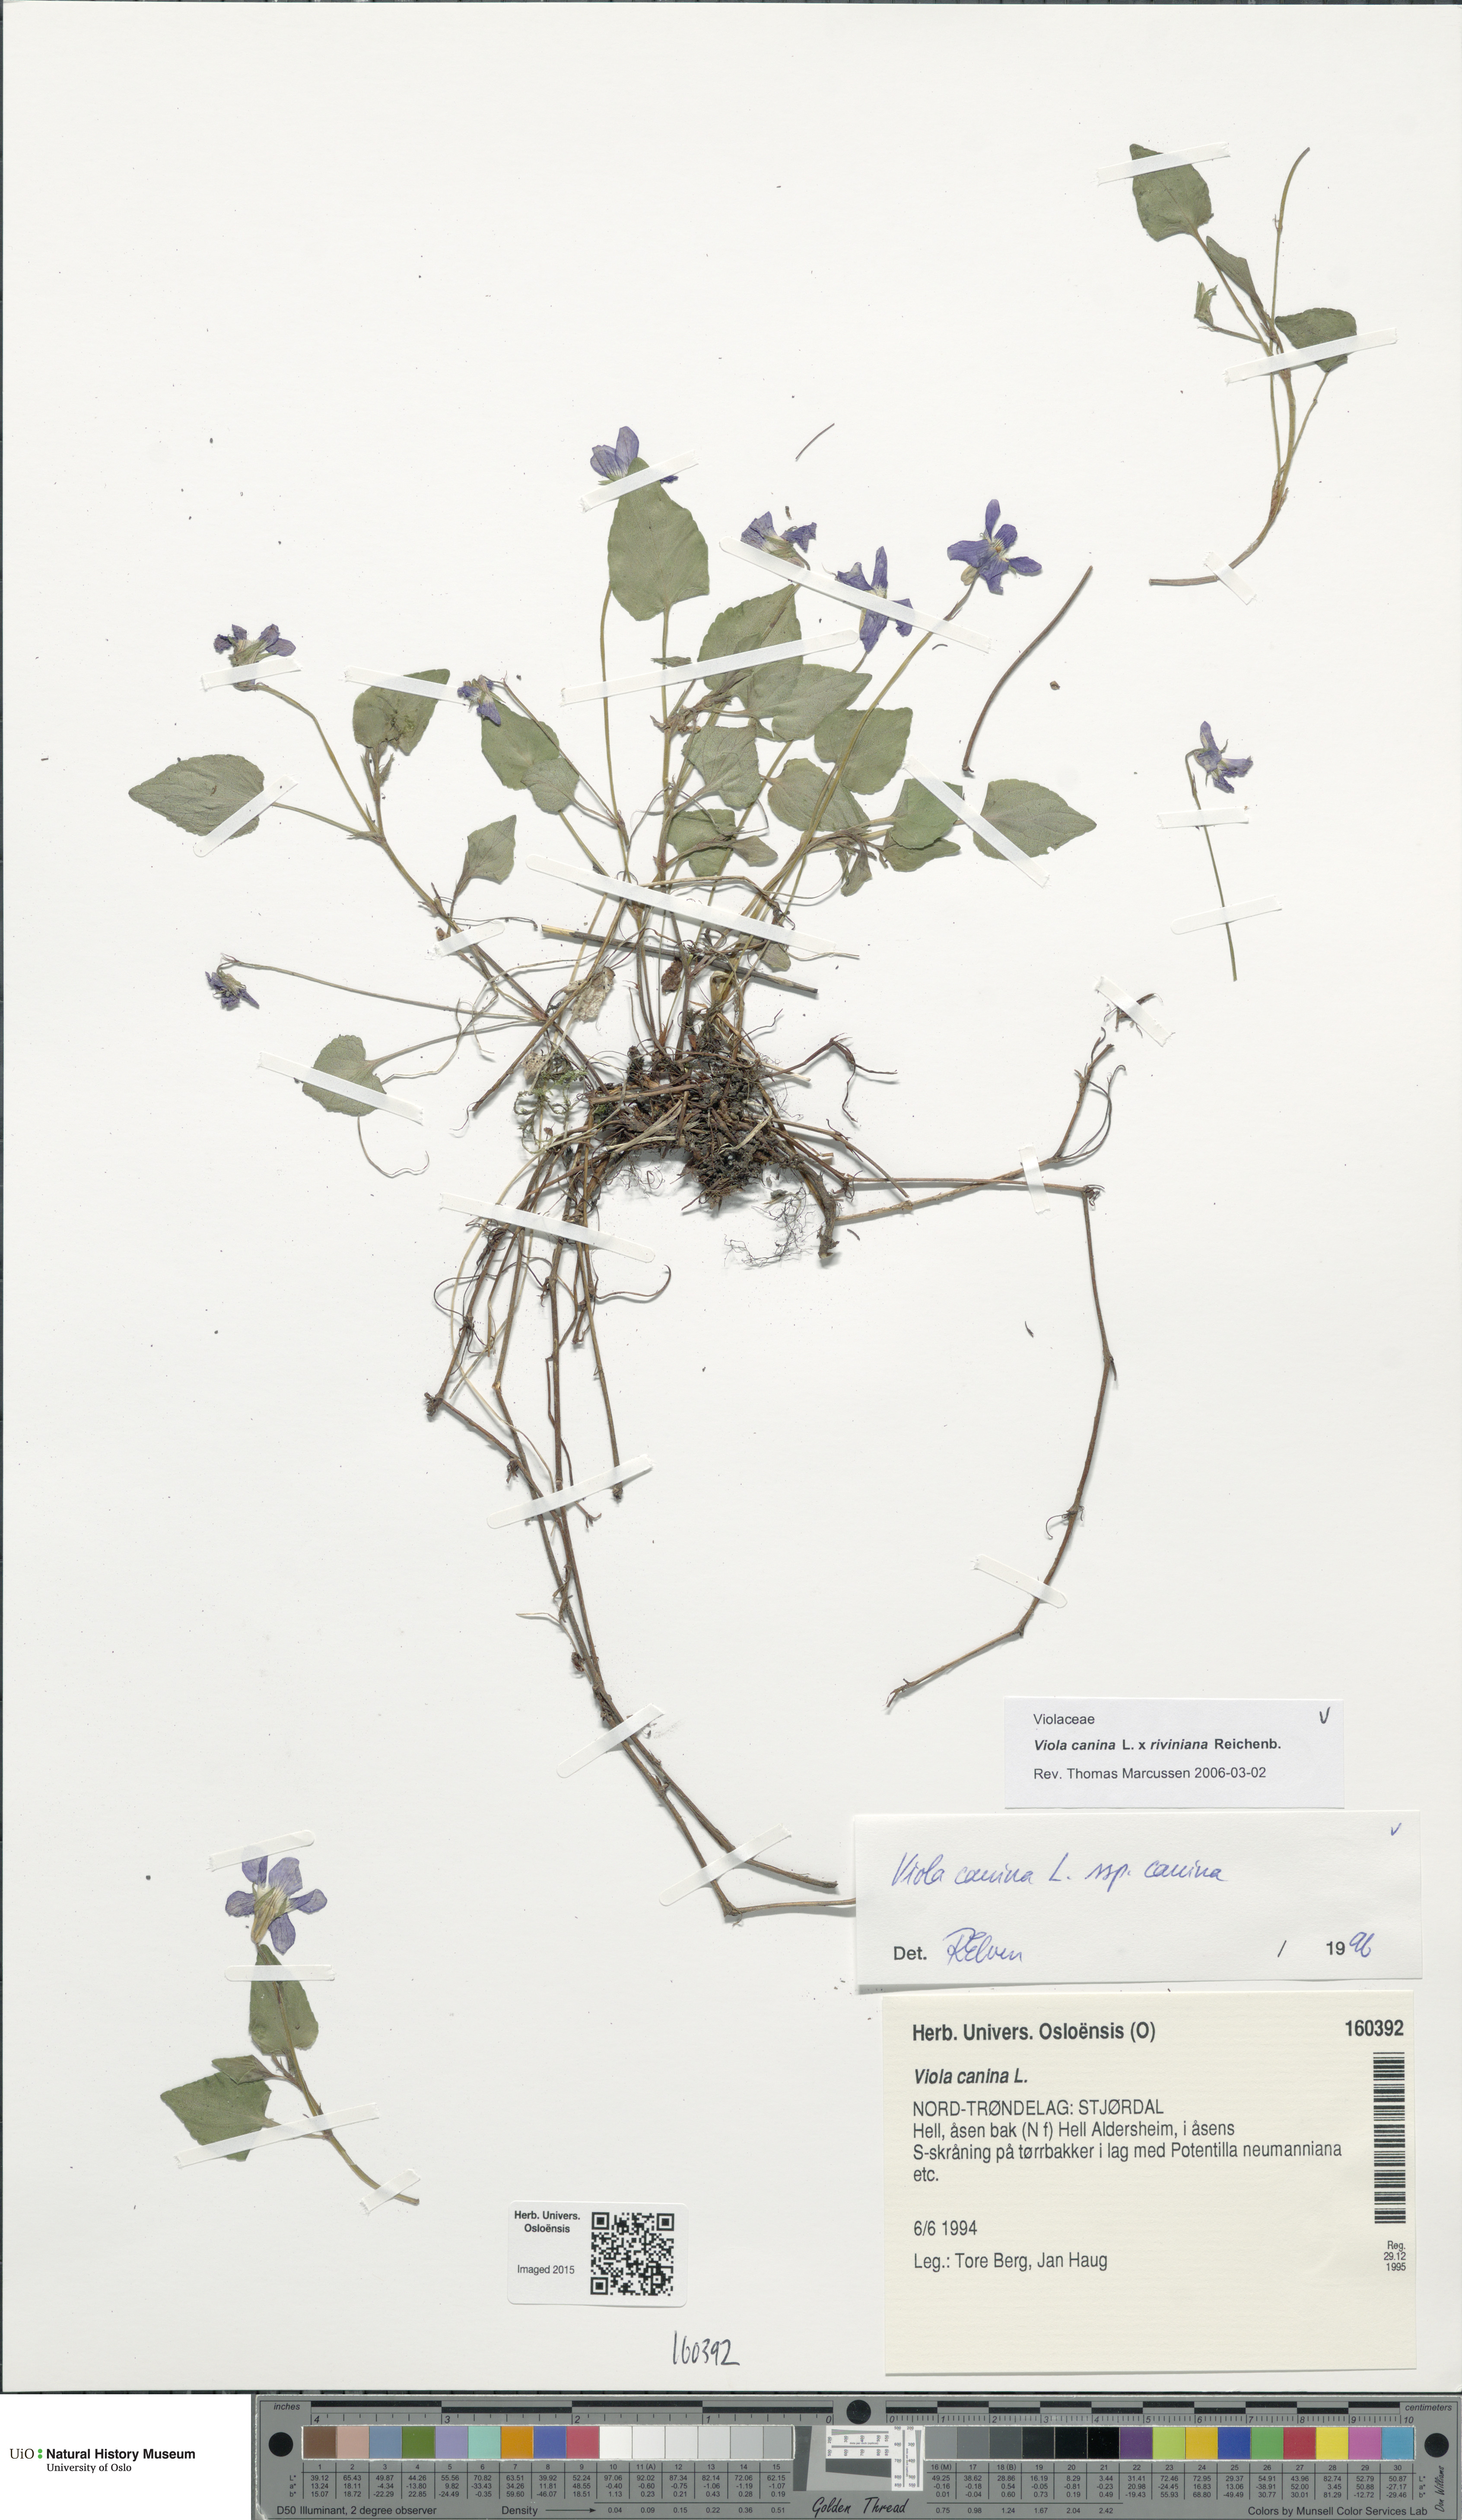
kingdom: Plantae
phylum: Tracheophyta
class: Magnoliopsida
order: Malpighiales
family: Violaceae
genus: Viola
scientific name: Viola
